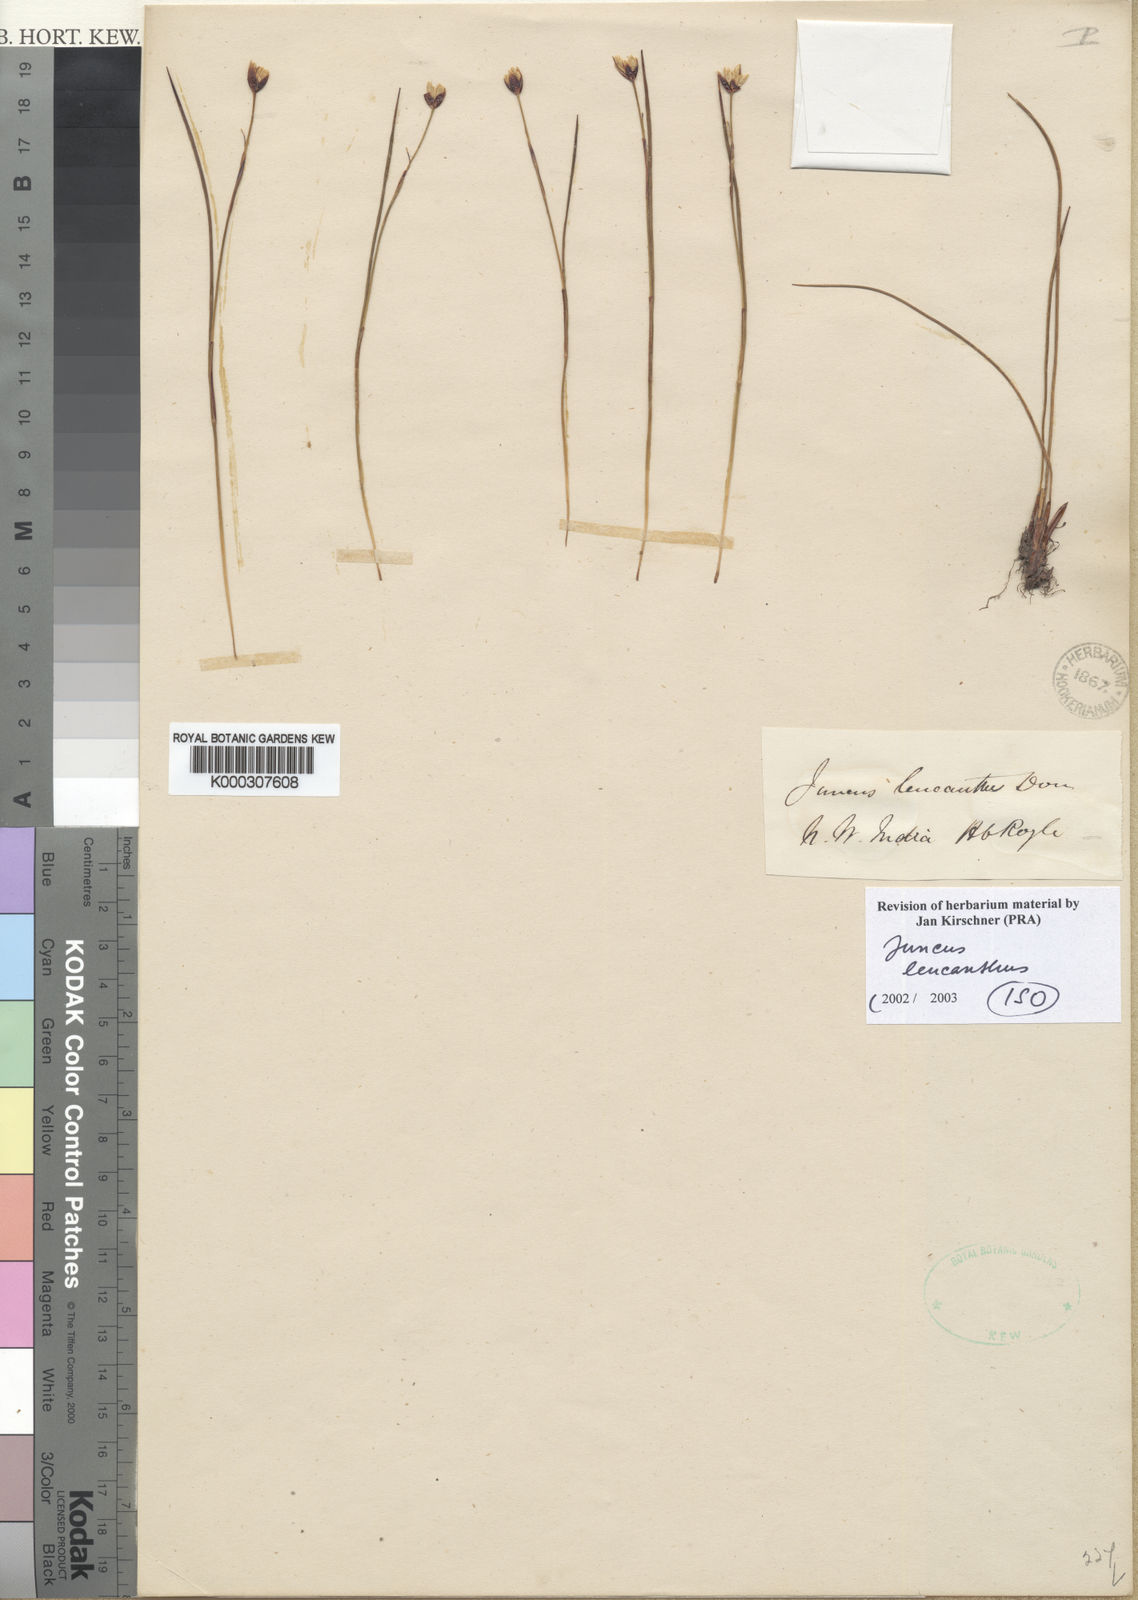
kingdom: Plantae
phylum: Tracheophyta
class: Liliopsida
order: Poales
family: Juncaceae
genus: Juncus
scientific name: Juncus leucanthus
